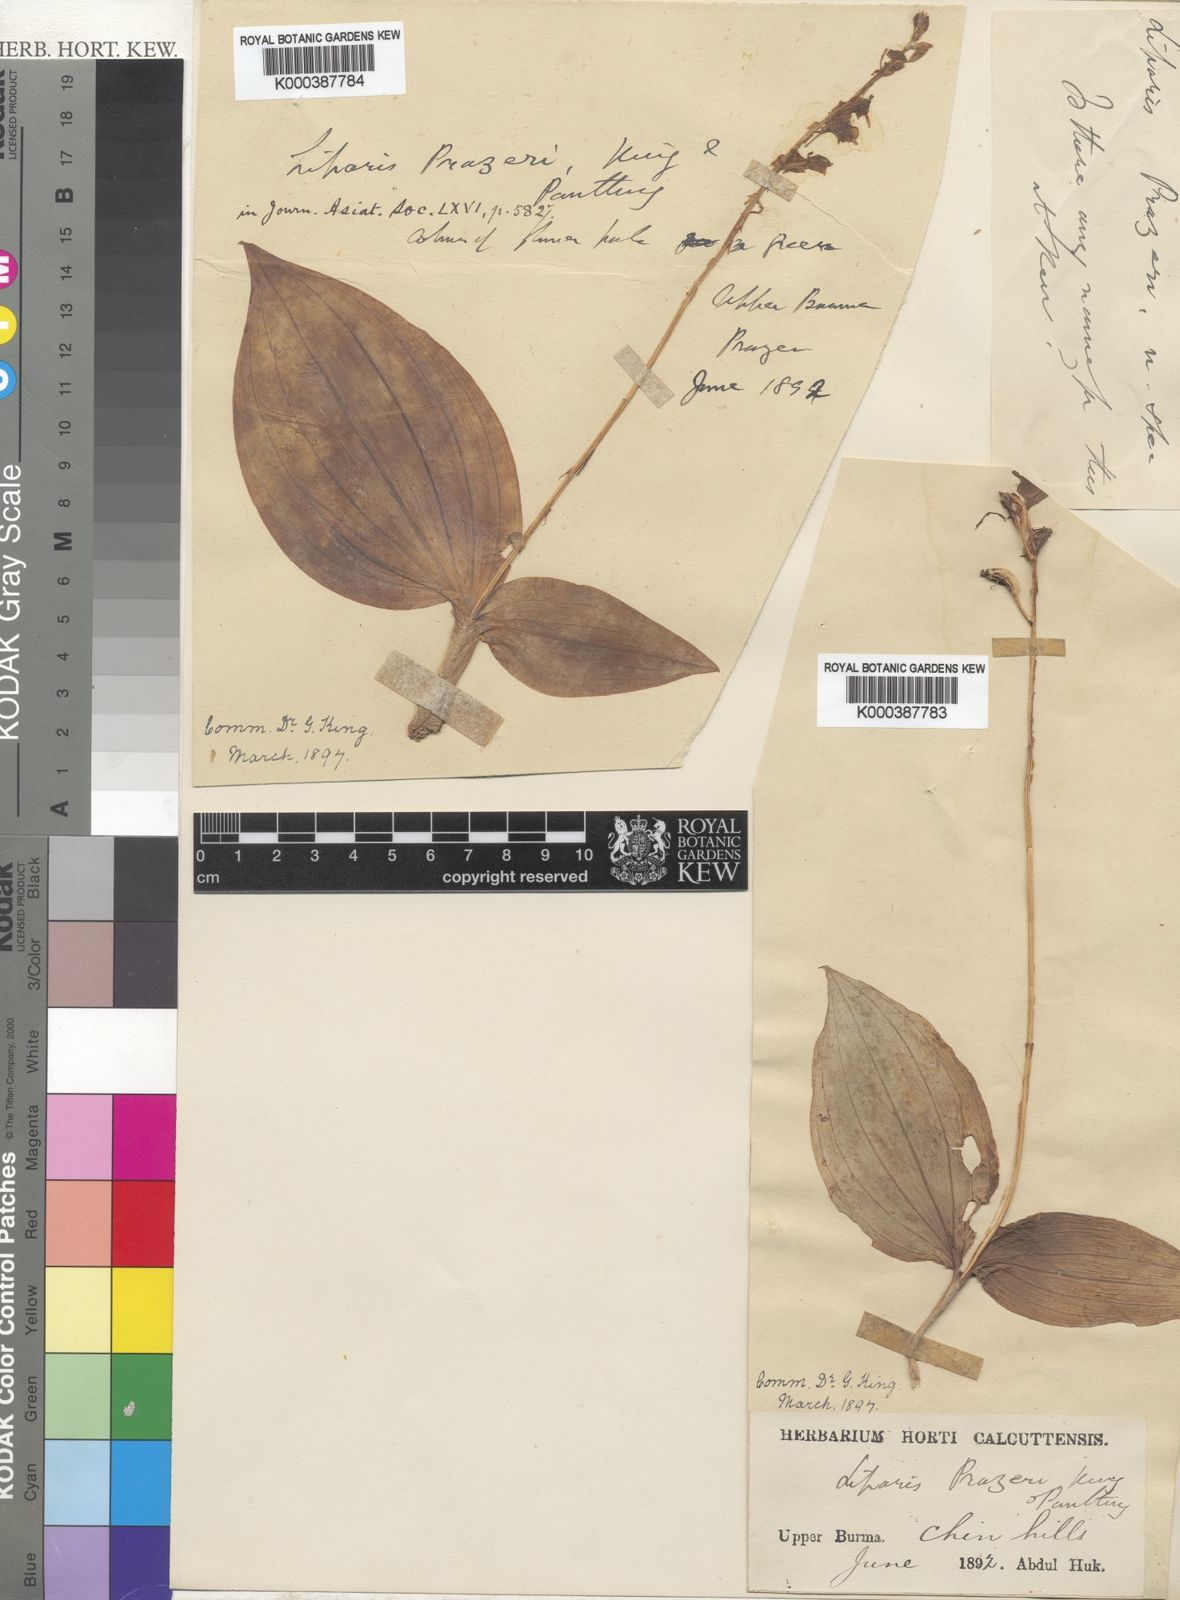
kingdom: Plantae
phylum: Tracheophyta
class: Liliopsida
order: Asparagales
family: Orchidaceae
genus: Liparis
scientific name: Liparis deflexa
